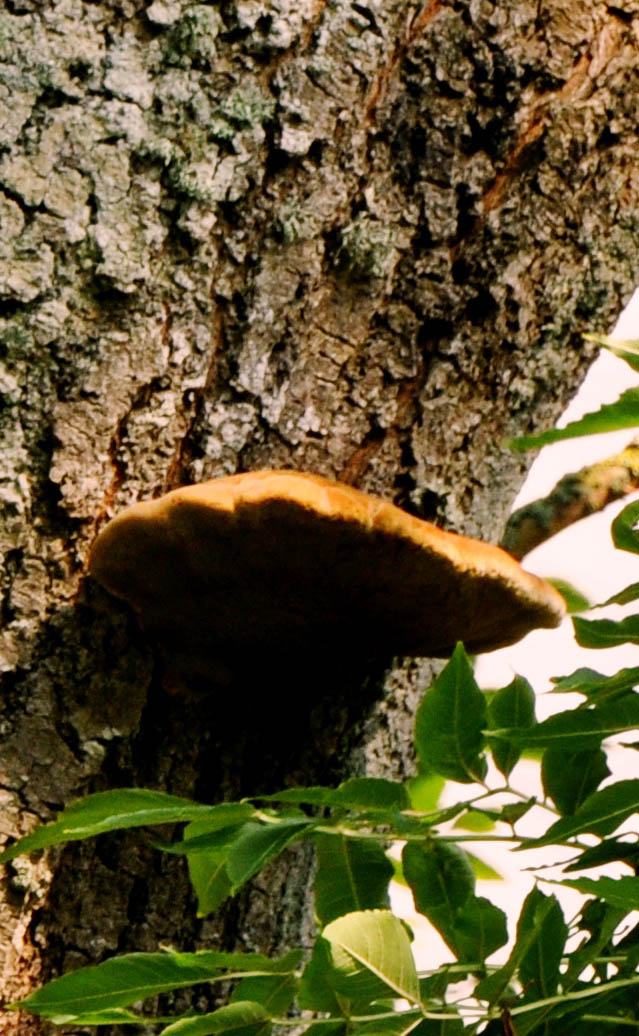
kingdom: Fungi
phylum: Basidiomycota
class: Agaricomycetes
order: Hymenochaetales
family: Hymenochaetaceae
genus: Inonotus
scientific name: Inonotus hispidus
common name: børstehåret spejlporesvamp
